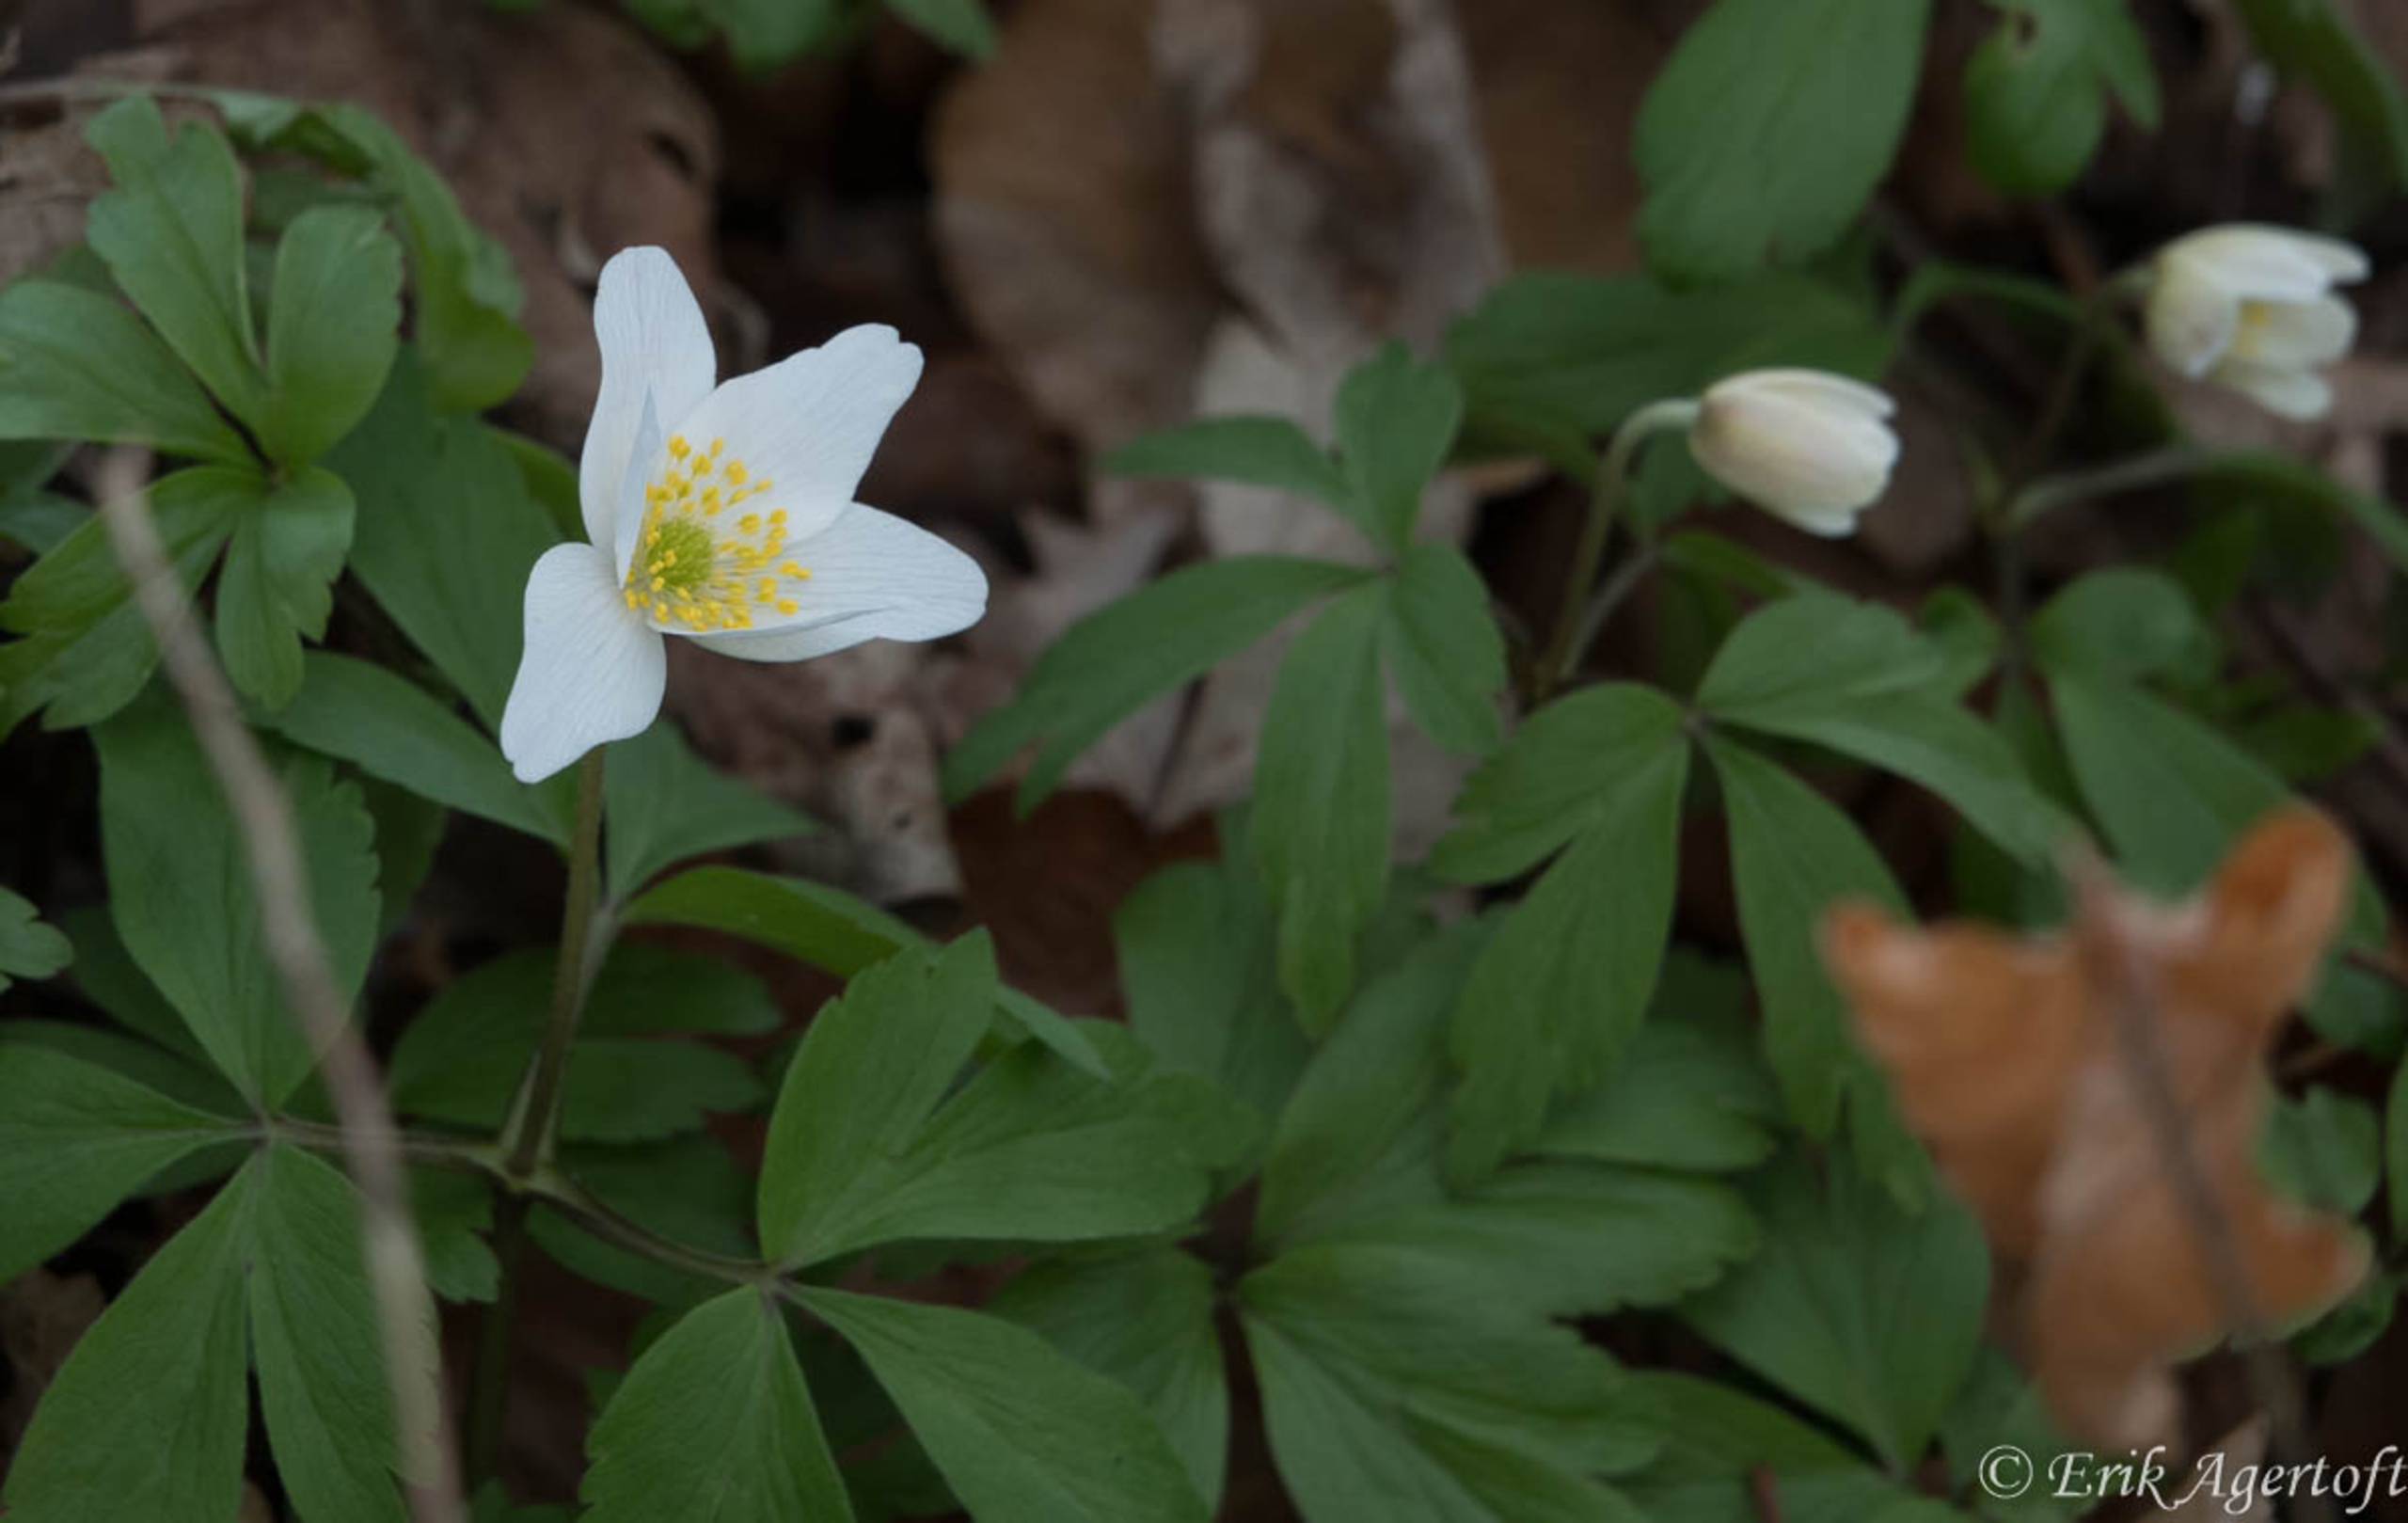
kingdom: Plantae
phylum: Tracheophyta
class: Magnoliopsida
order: Ranunculales
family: Ranunculaceae
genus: Anemone
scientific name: Anemone nemorosa
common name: Hvid anemone
